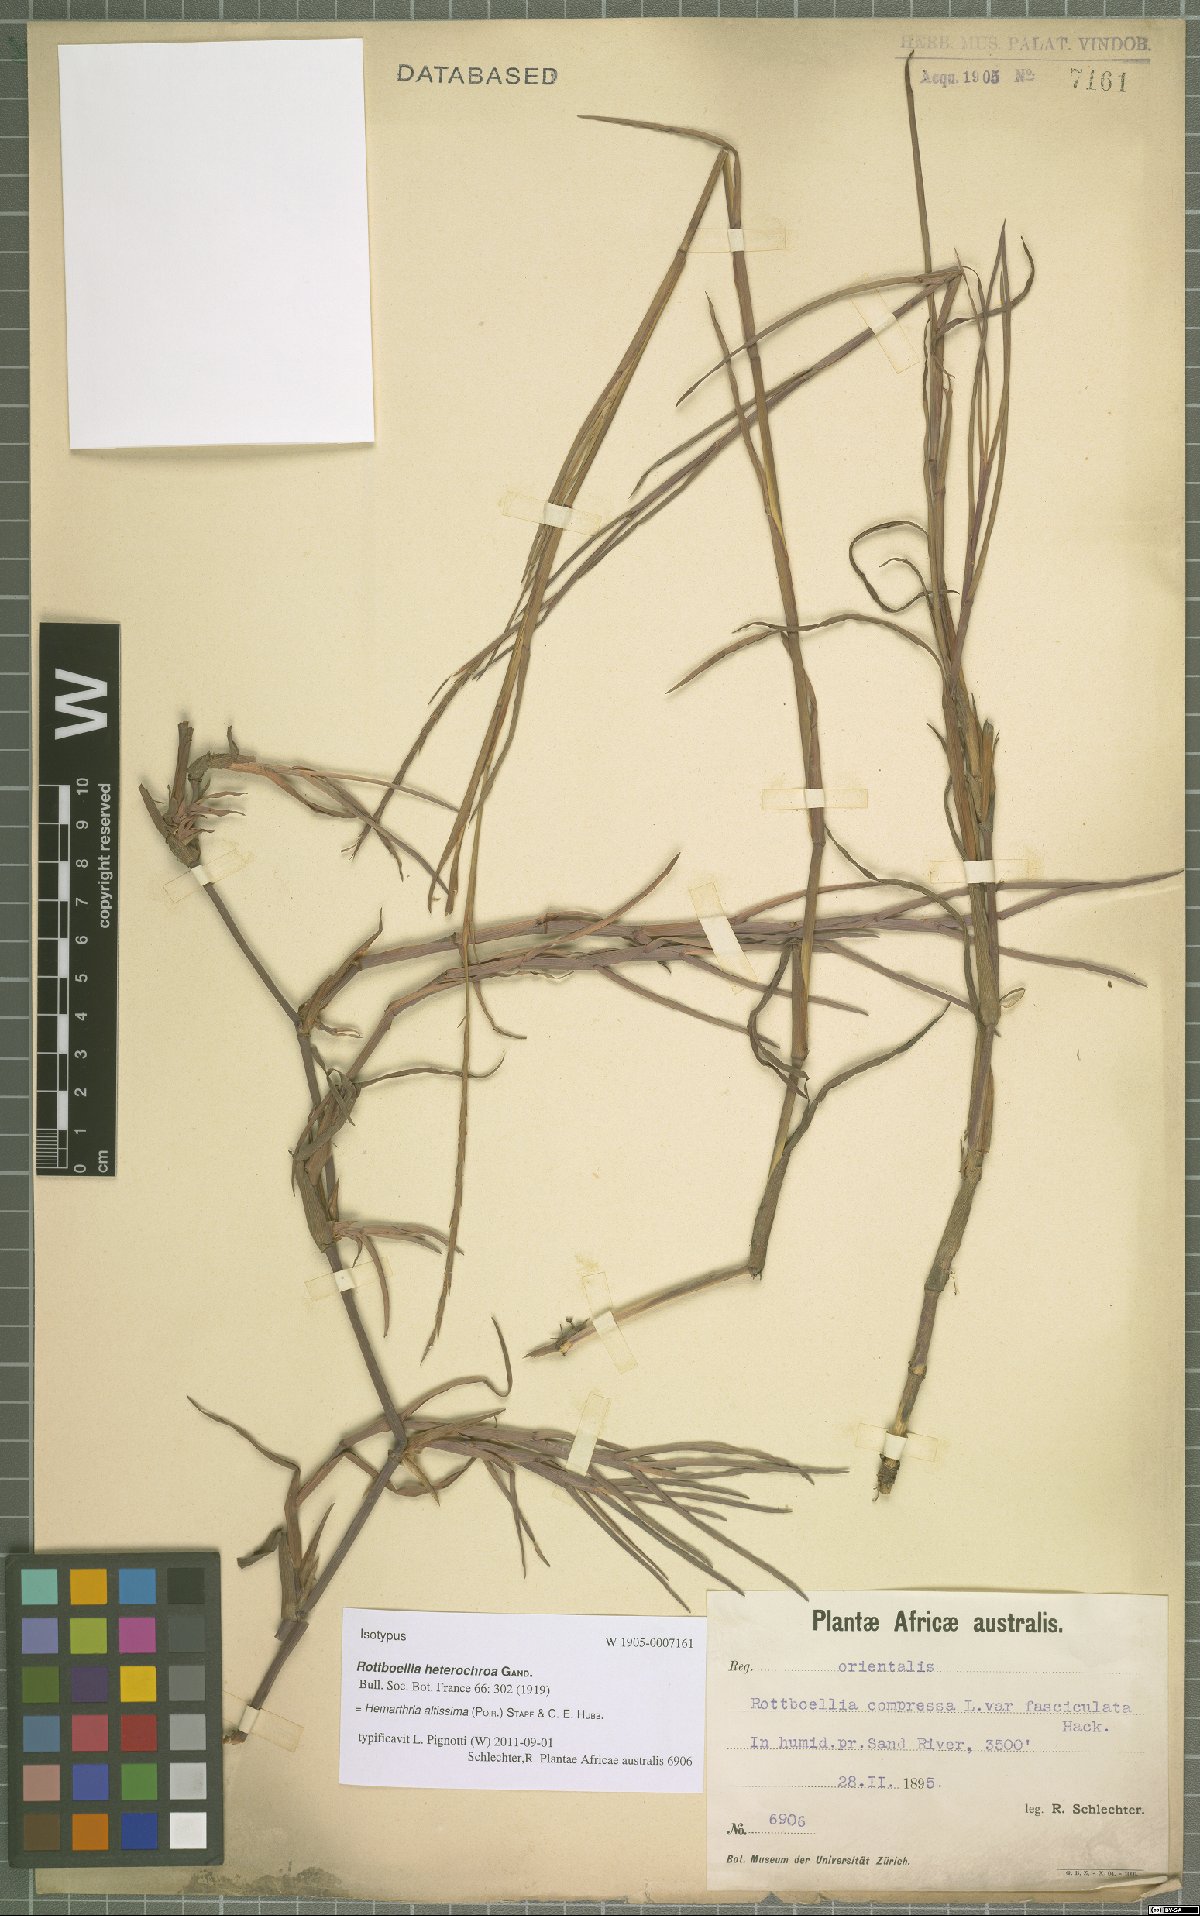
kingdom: Plantae
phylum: Tracheophyta
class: Liliopsida
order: Poales
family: Poaceae
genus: Hemarthria
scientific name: Hemarthria altissima
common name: African jointgrass
